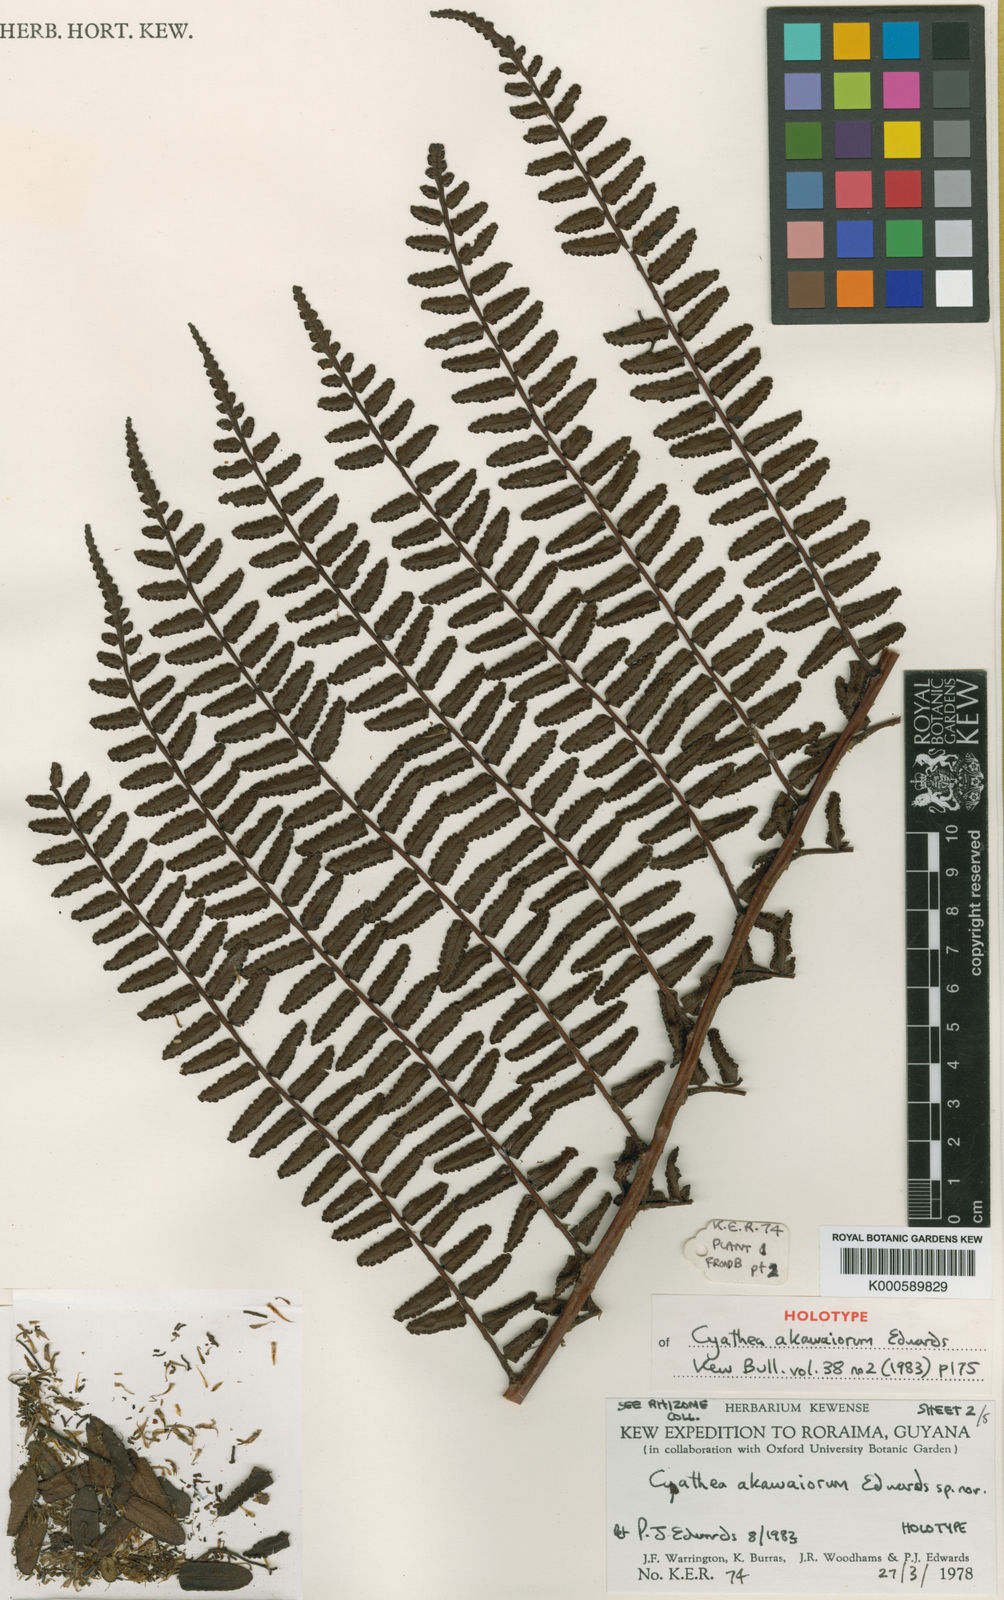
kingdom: Plantae
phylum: Tracheophyta
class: Polypodiopsida
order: Cyatheales
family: Cyatheaceae
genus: Cyathea
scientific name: Cyathea akawaiorum
